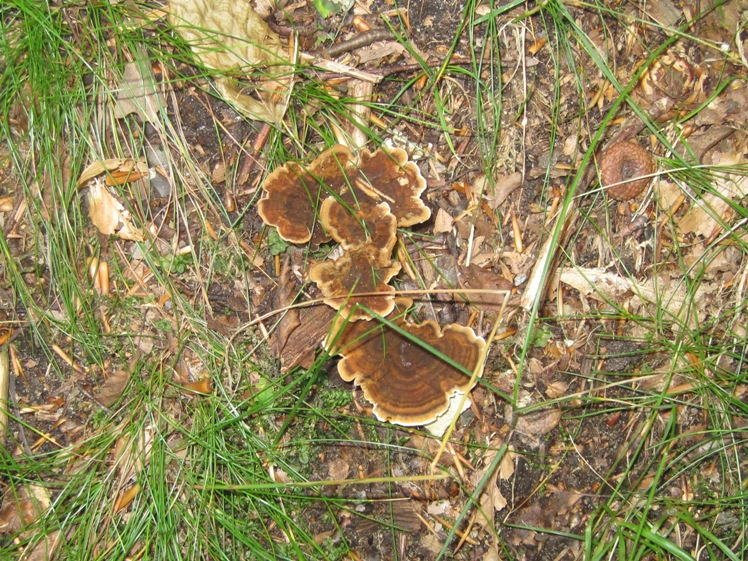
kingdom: Fungi
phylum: Basidiomycota
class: Agaricomycetes
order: Hymenochaetales
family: Hymenochaetaceae
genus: Coltricia
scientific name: Coltricia
